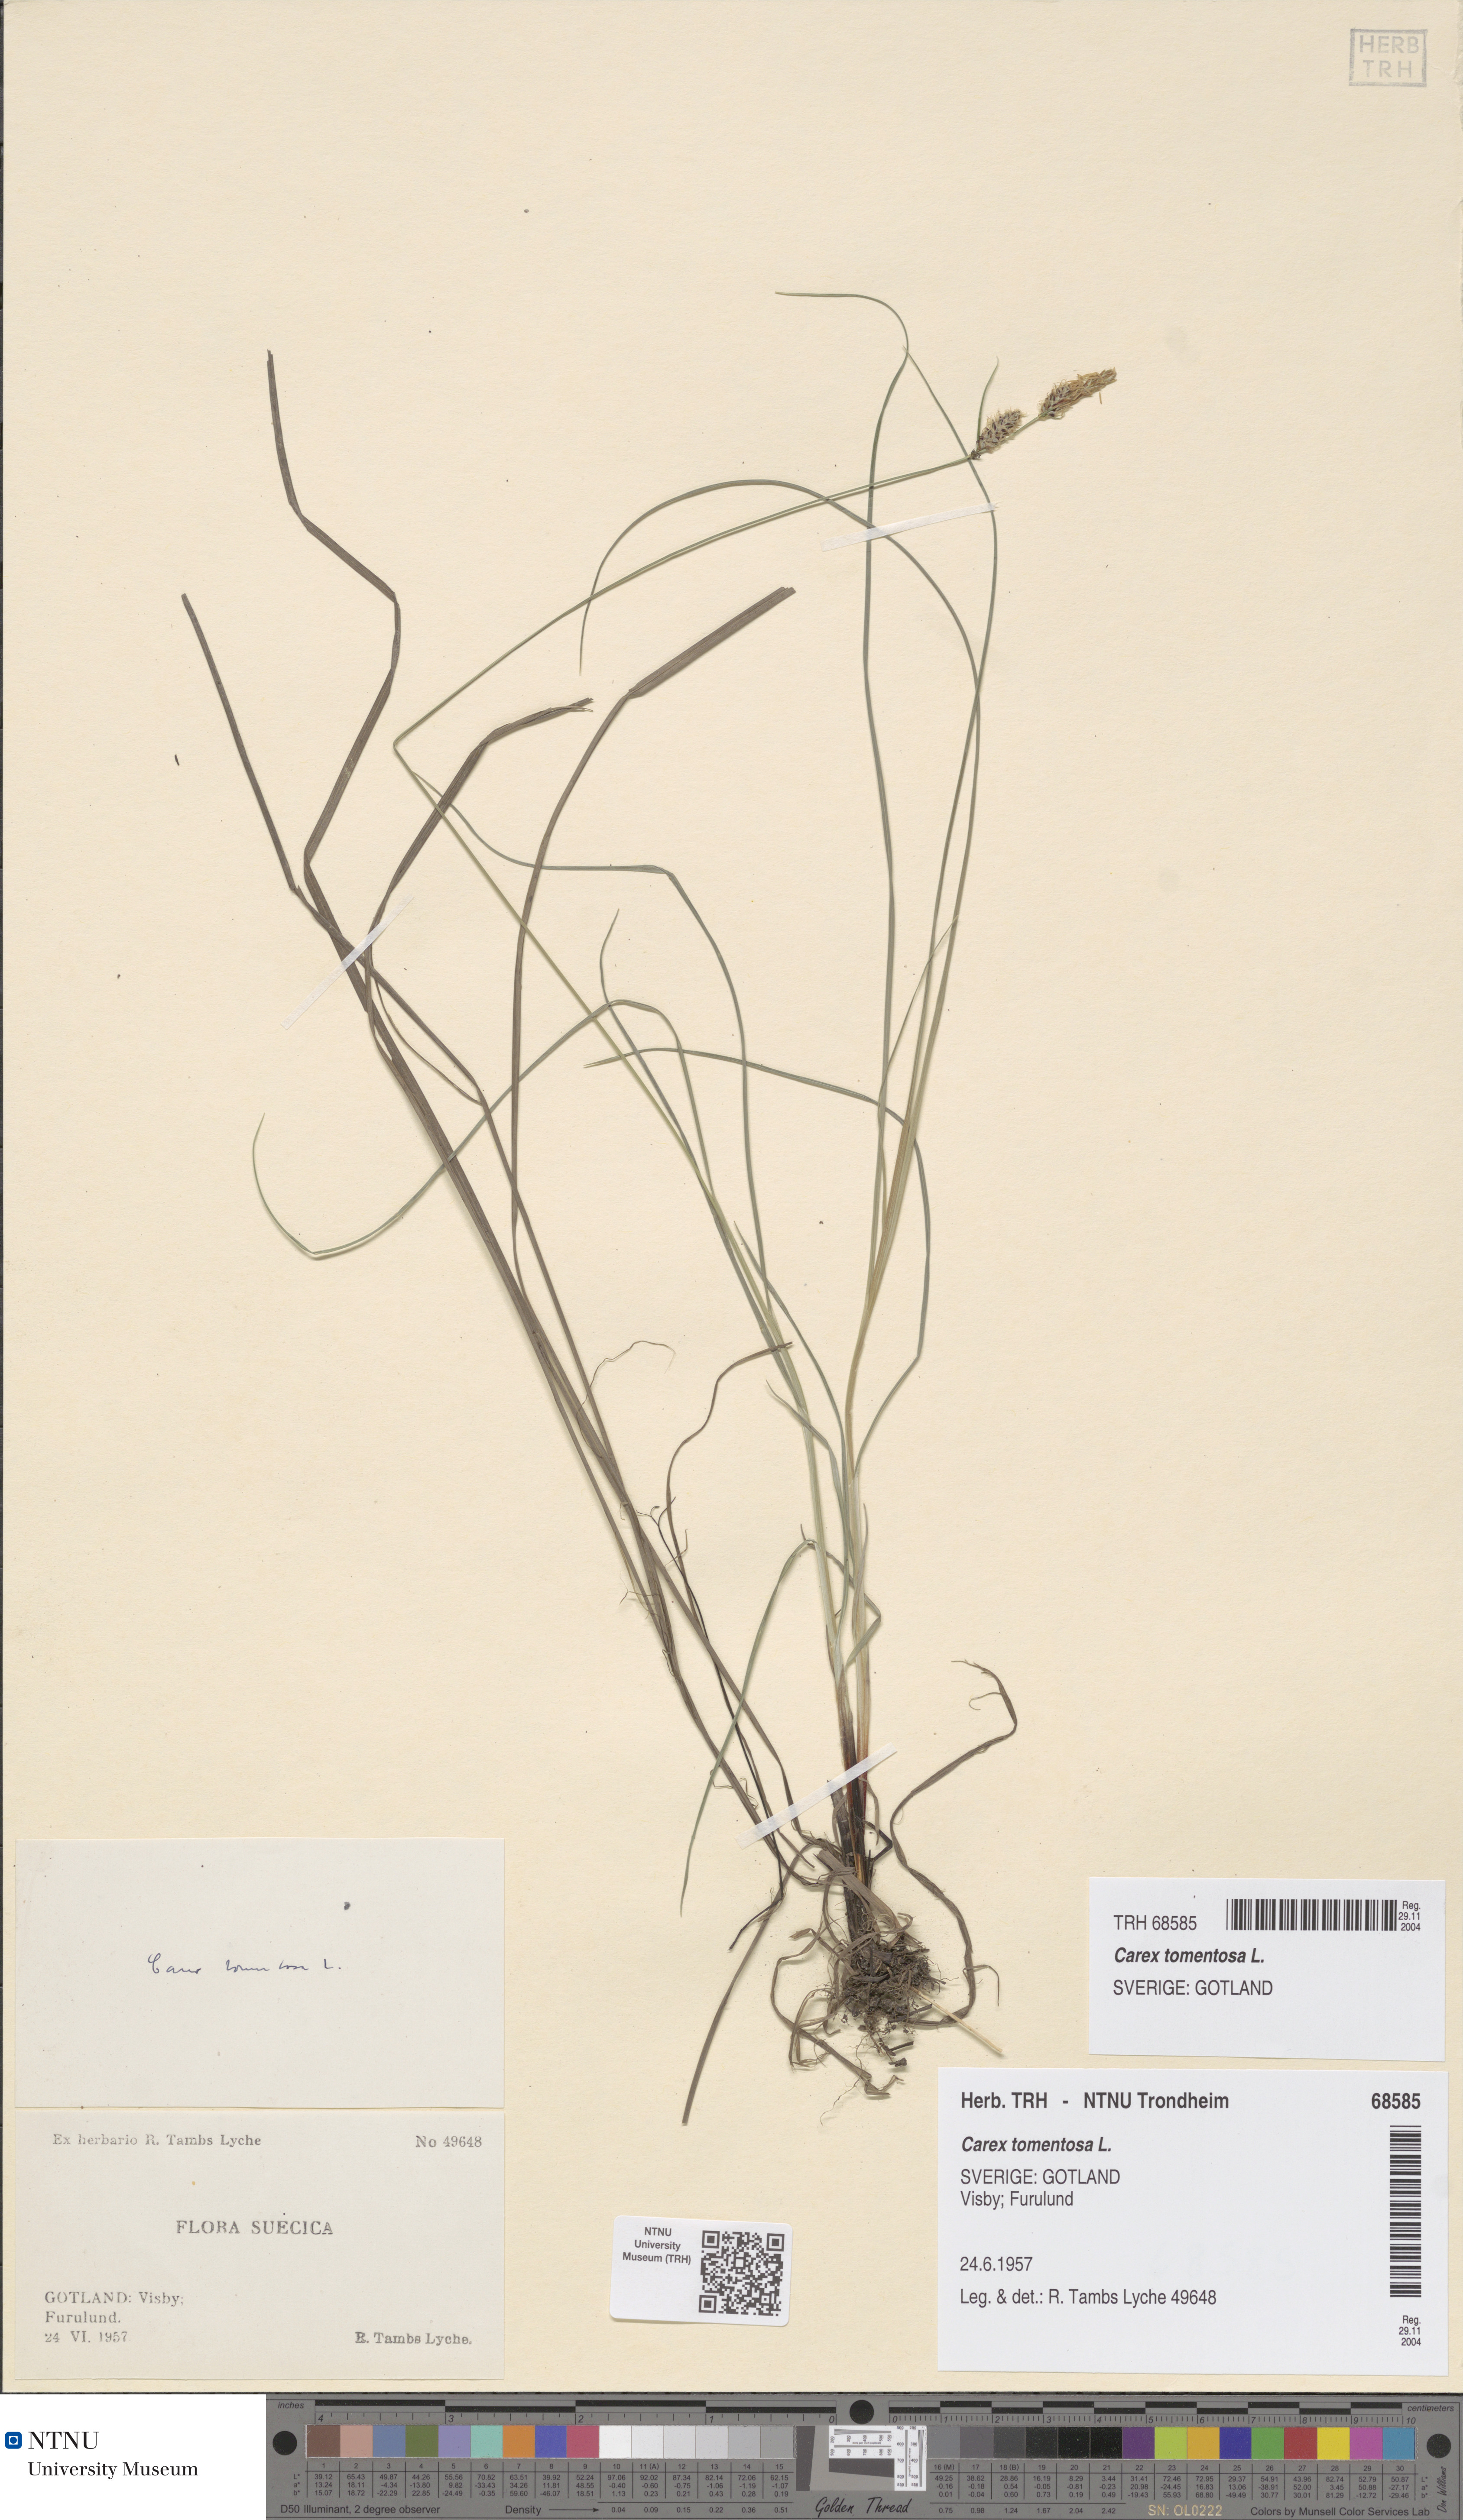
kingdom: Plantae
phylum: Tracheophyta
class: Liliopsida
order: Poales
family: Cyperaceae
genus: Carex
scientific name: Carex montana
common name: Soft-leaved sedge
